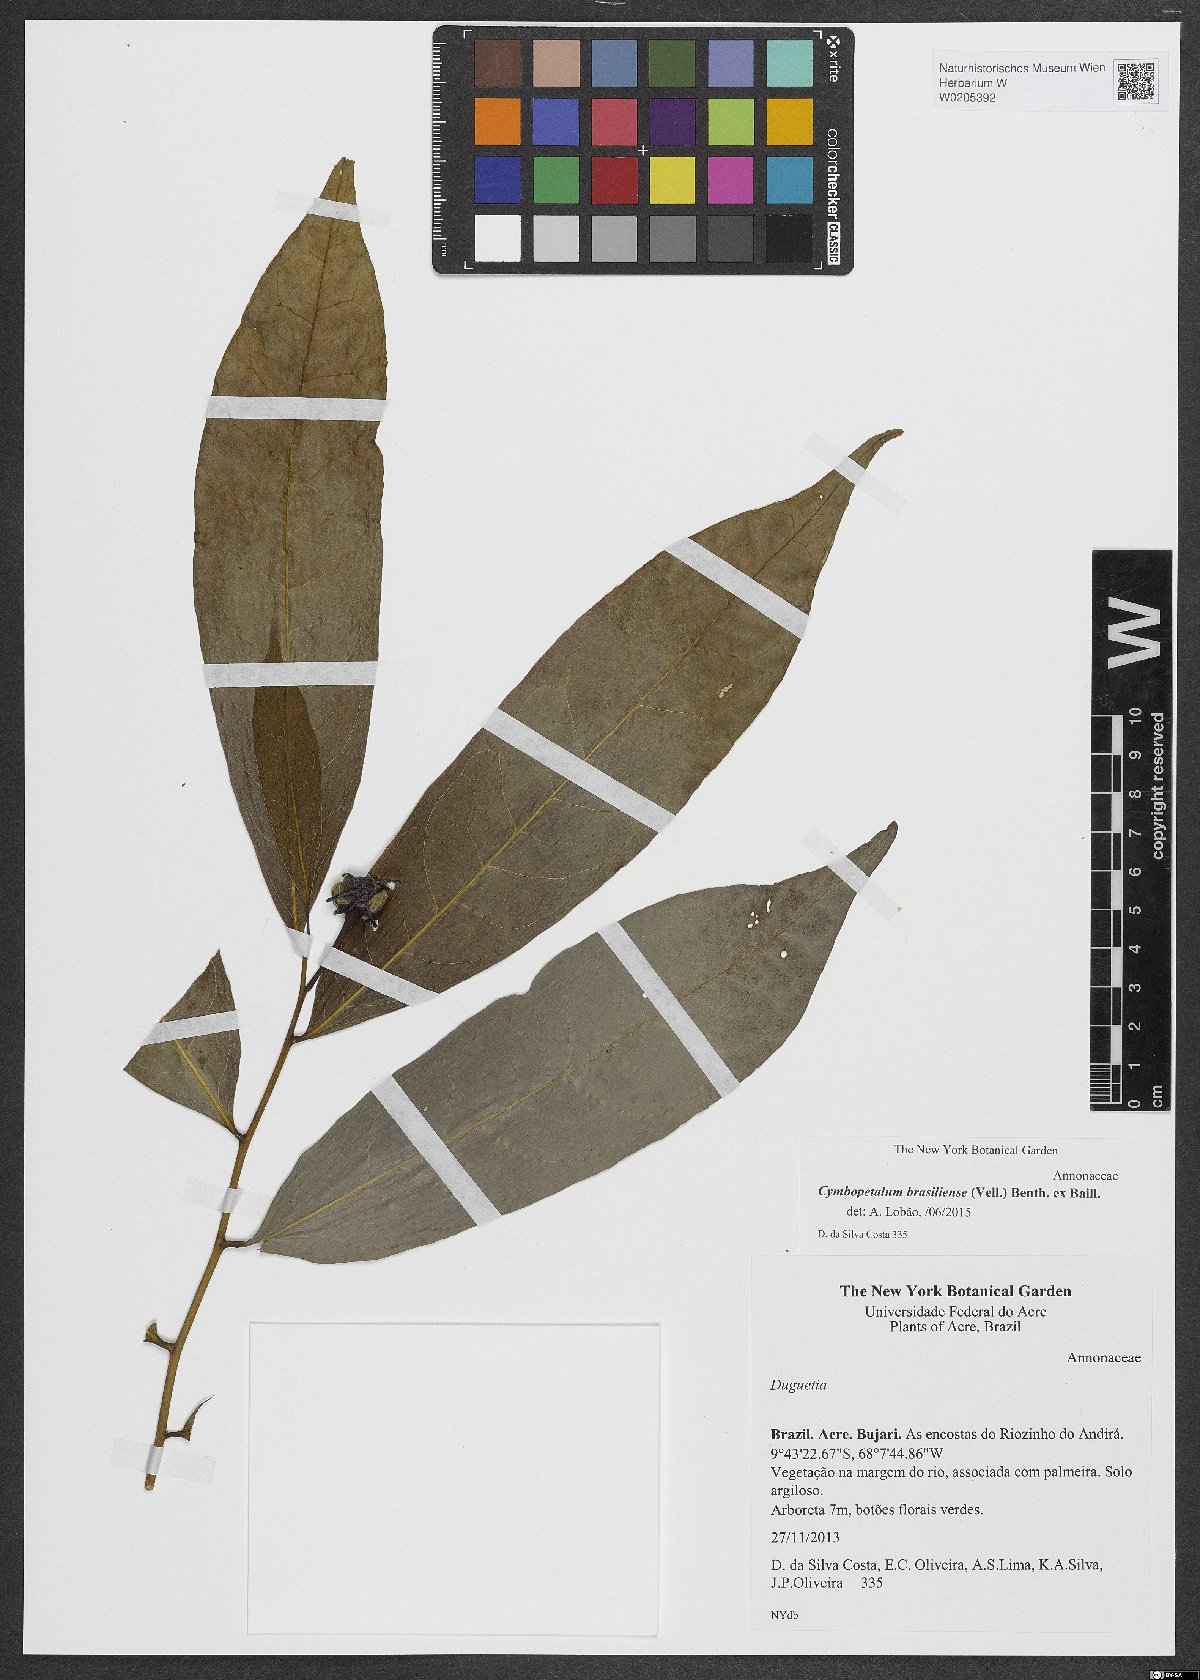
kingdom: Plantae
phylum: Tracheophyta
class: Magnoliopsida
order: Magnoliales
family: Annonaceae
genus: Cymbopetalum
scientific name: Cymbopetalum brasiliense
